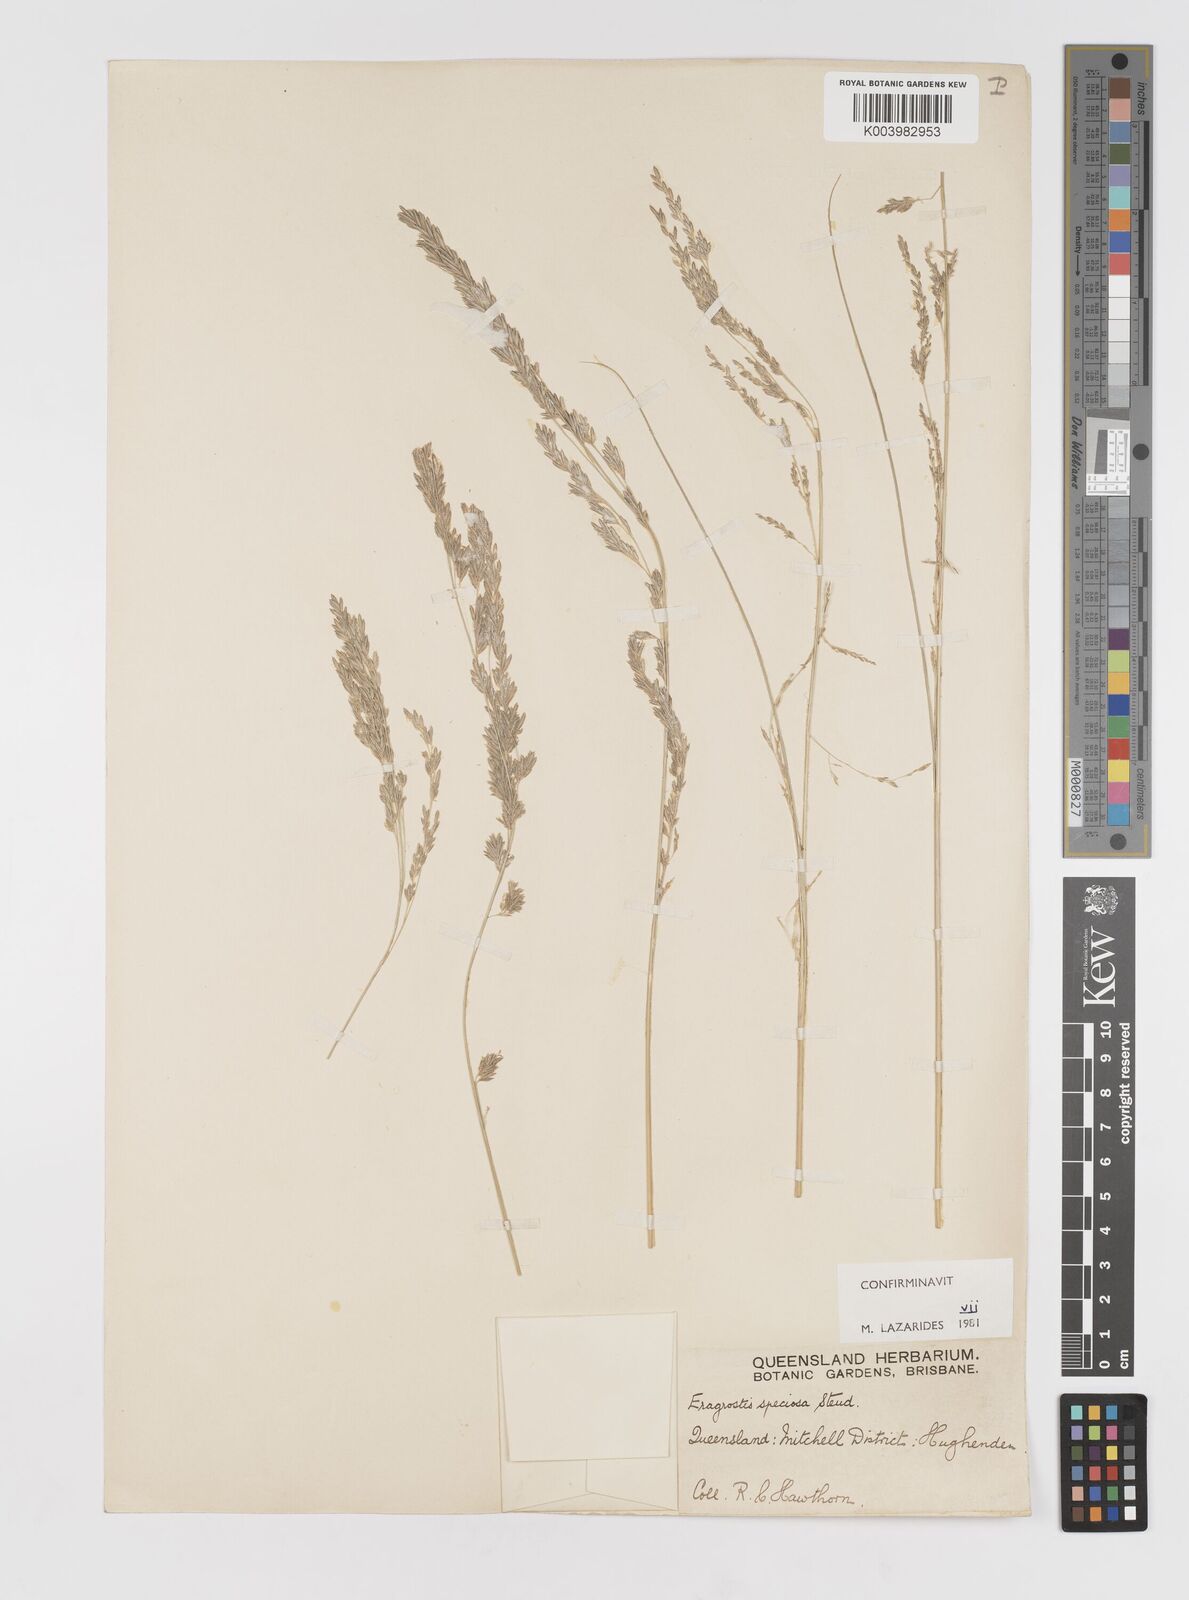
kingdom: Plantae
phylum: Tracheophyta
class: Liliopsida
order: Poales
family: Poaceae
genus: Eragrostis
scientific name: Eragrostis speciosa
